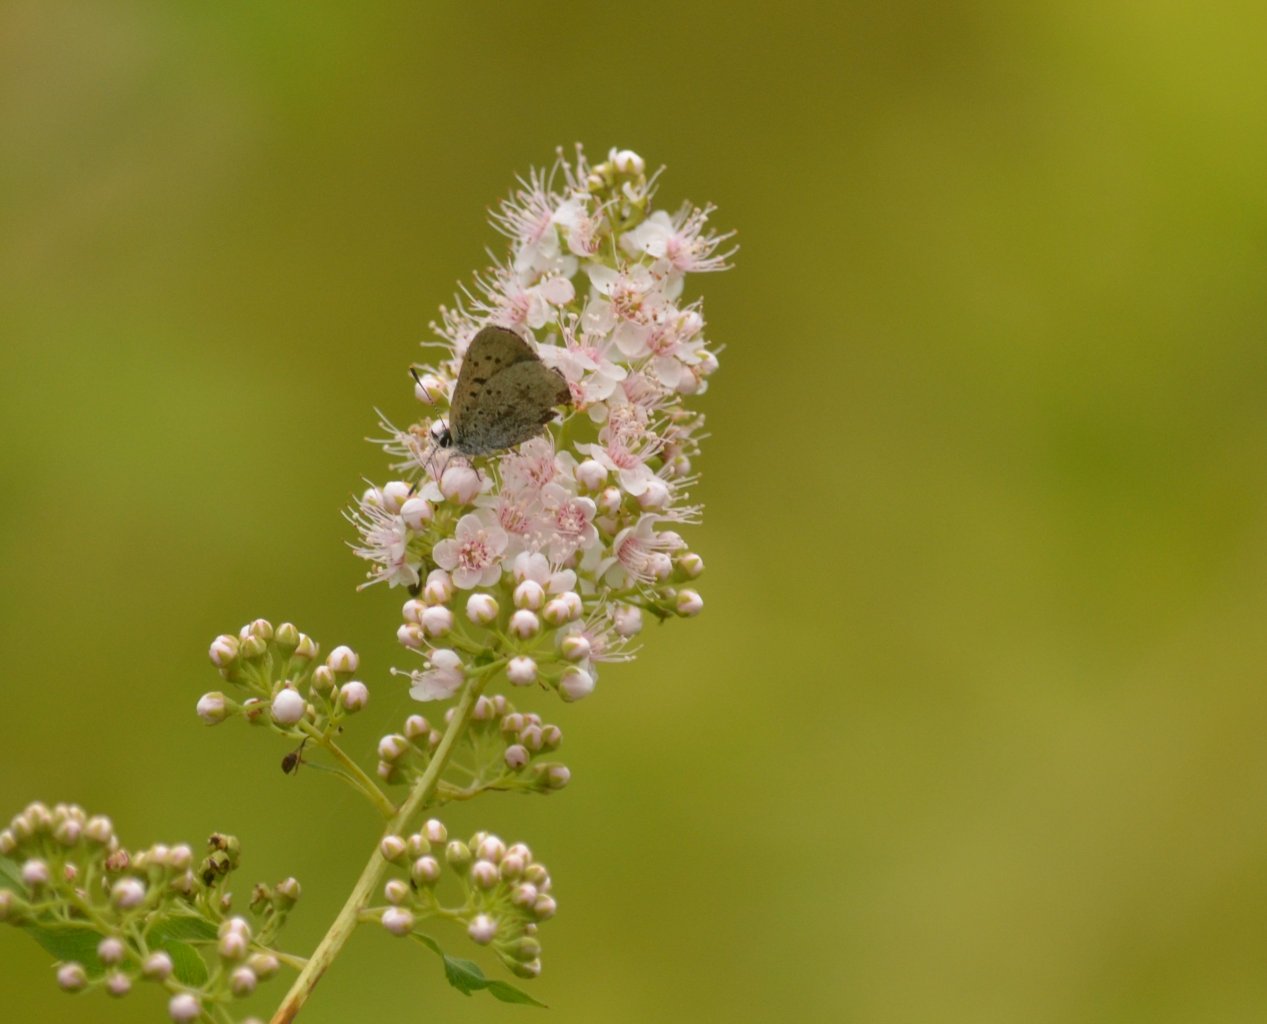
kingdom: Animalia
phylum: Arthropoda
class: Insecta
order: Lepidoptera
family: Sesiidae
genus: Sesia
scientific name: Sesia Lycaena epixanthe
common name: Bog Copper
